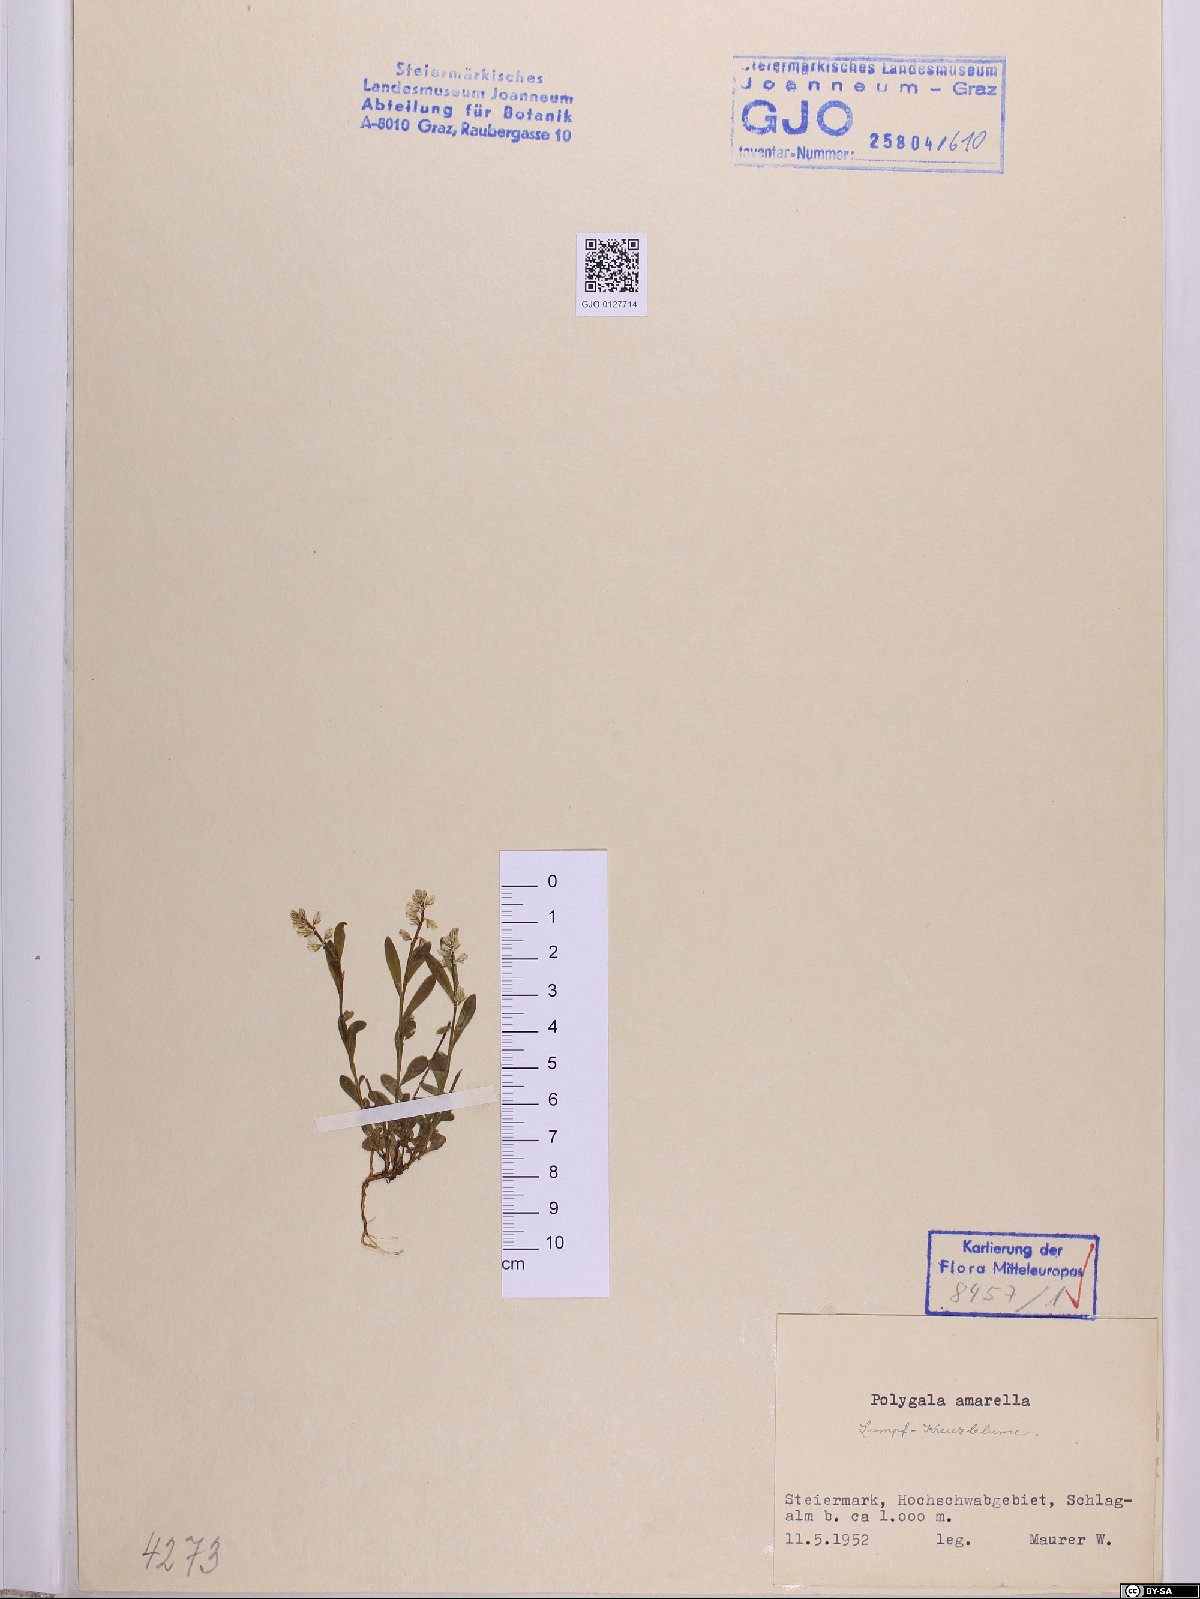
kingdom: Plantae
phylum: Tracheophyta
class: Magnoliopsida
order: Fabales
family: Polygalaceae
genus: Polygala
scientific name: Polygala amarella
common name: Dwarf milkwort
